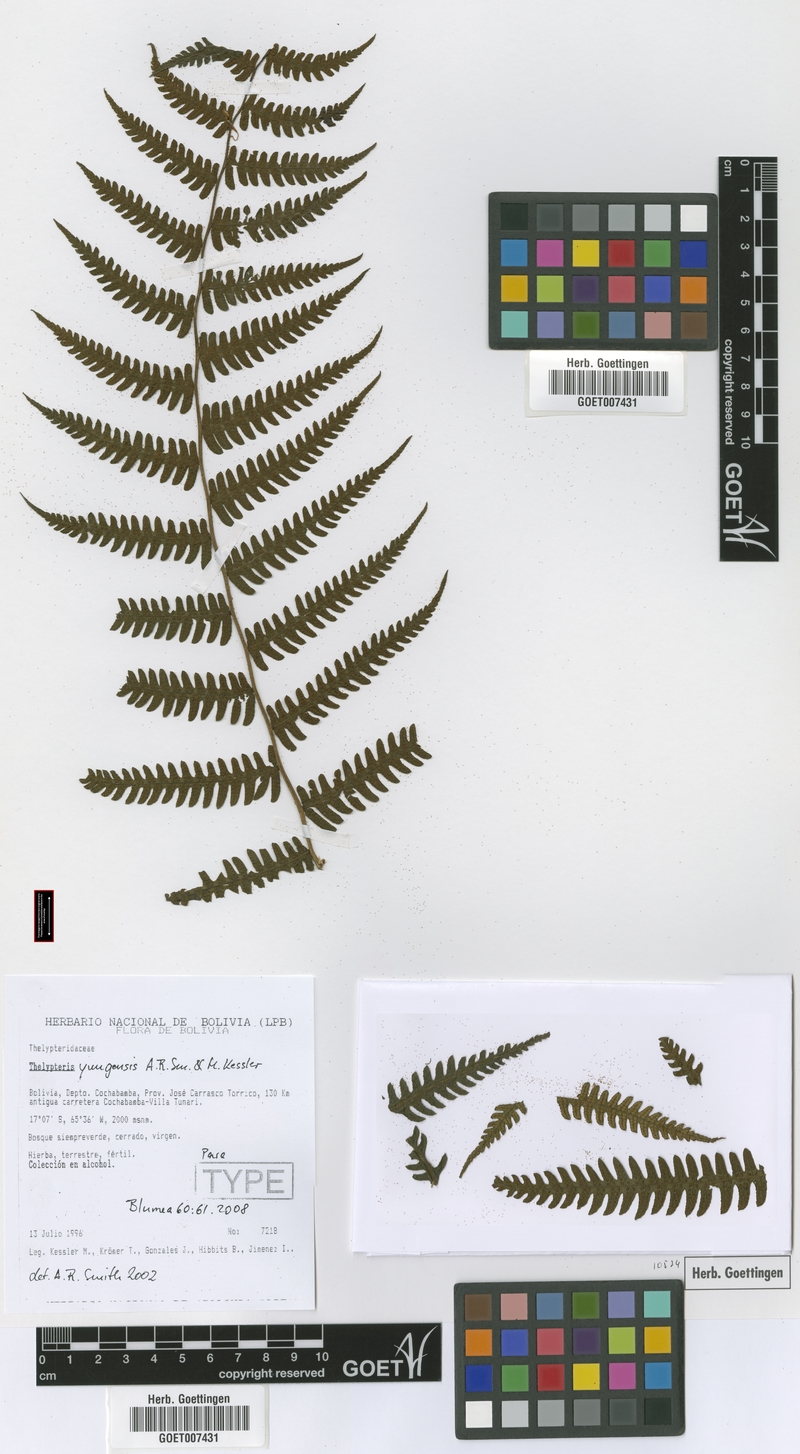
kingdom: Plantae
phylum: Tracheophyta
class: Polypodiopsida
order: Polypodiales
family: Thelypteridaceae
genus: Amauropelta
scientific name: Amauropelta yungensis
